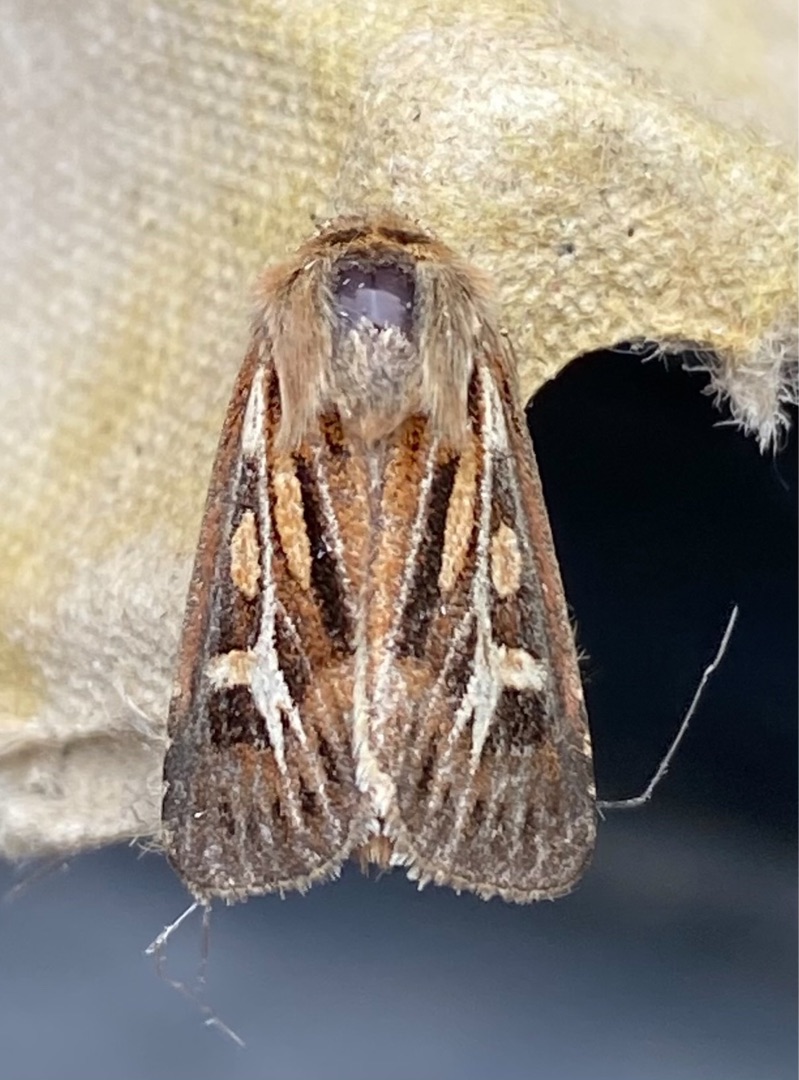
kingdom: Animalia
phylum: Arthropoda
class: Insecta
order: Lepidoptera
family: Noctuidae
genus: Cerapteryx
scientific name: Cerapteryx graminis
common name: Mosebunkeugle
